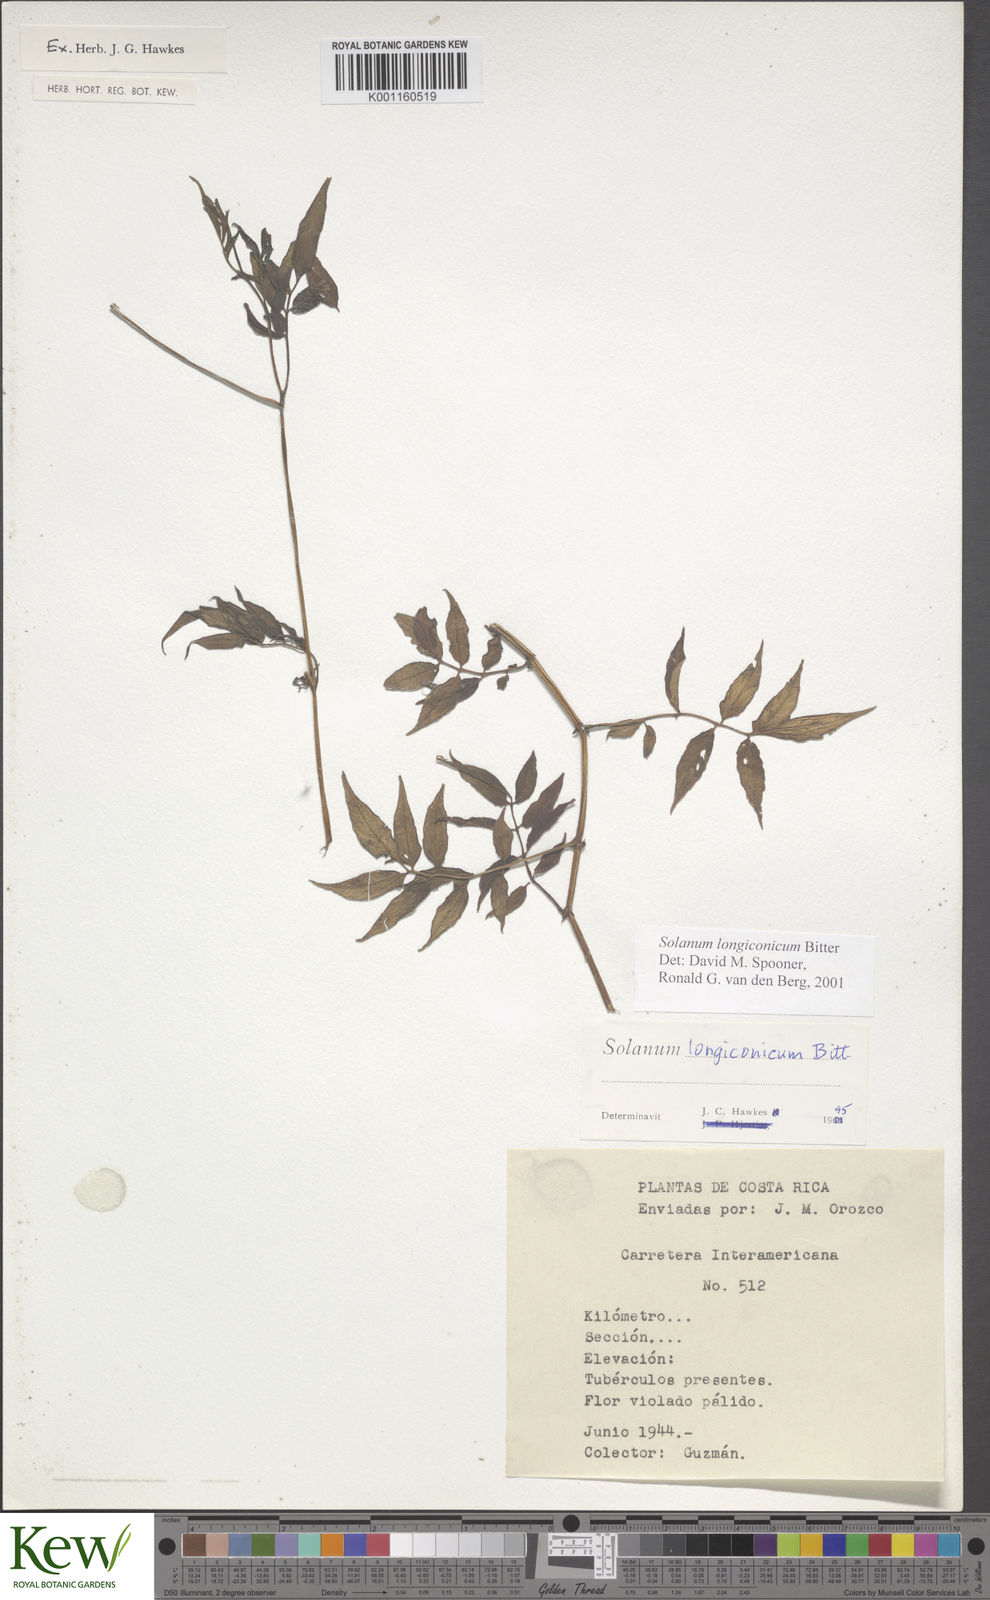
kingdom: Plantae
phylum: Tracheophyta
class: Magnoliopsida
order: Solanales
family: Solanaceae
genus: Solanum
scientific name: Solanum longiconicum
